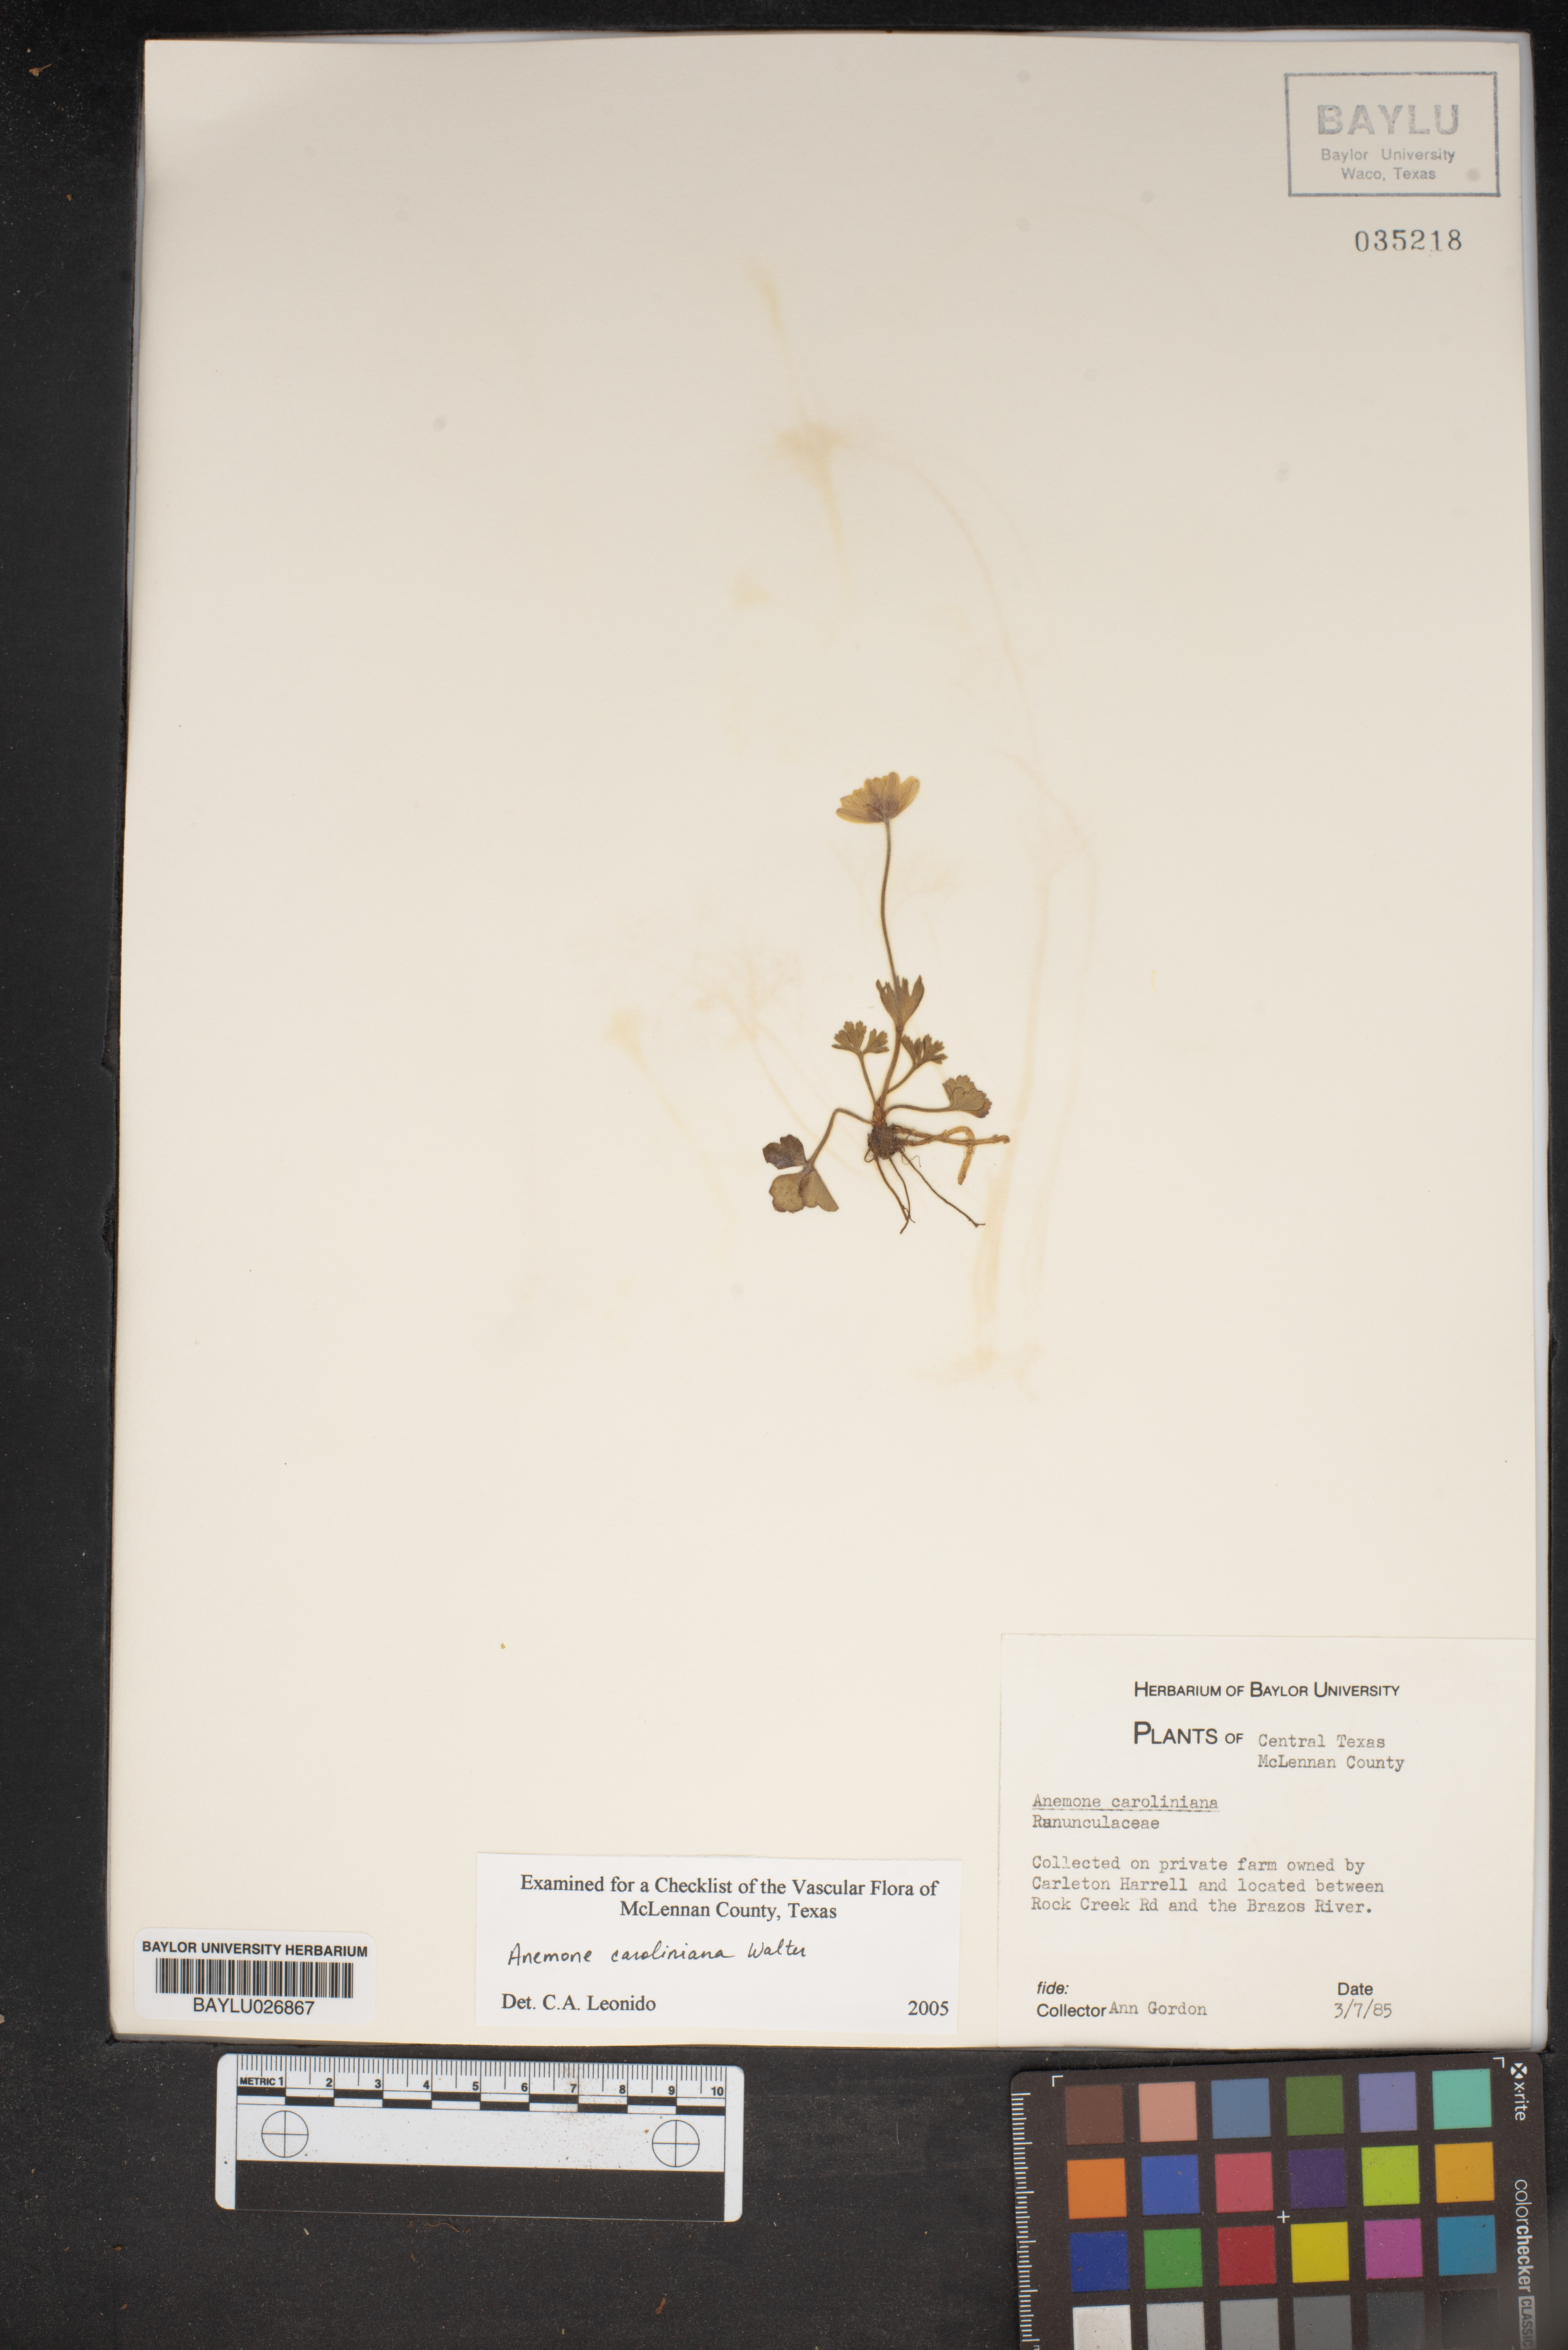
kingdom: Plantae
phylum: Tracheophyta
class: Magnoliopsida
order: Ranunculales
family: Ranunculaceae
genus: Anemone
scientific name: Anemone caroliniana
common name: Carolina anemone
